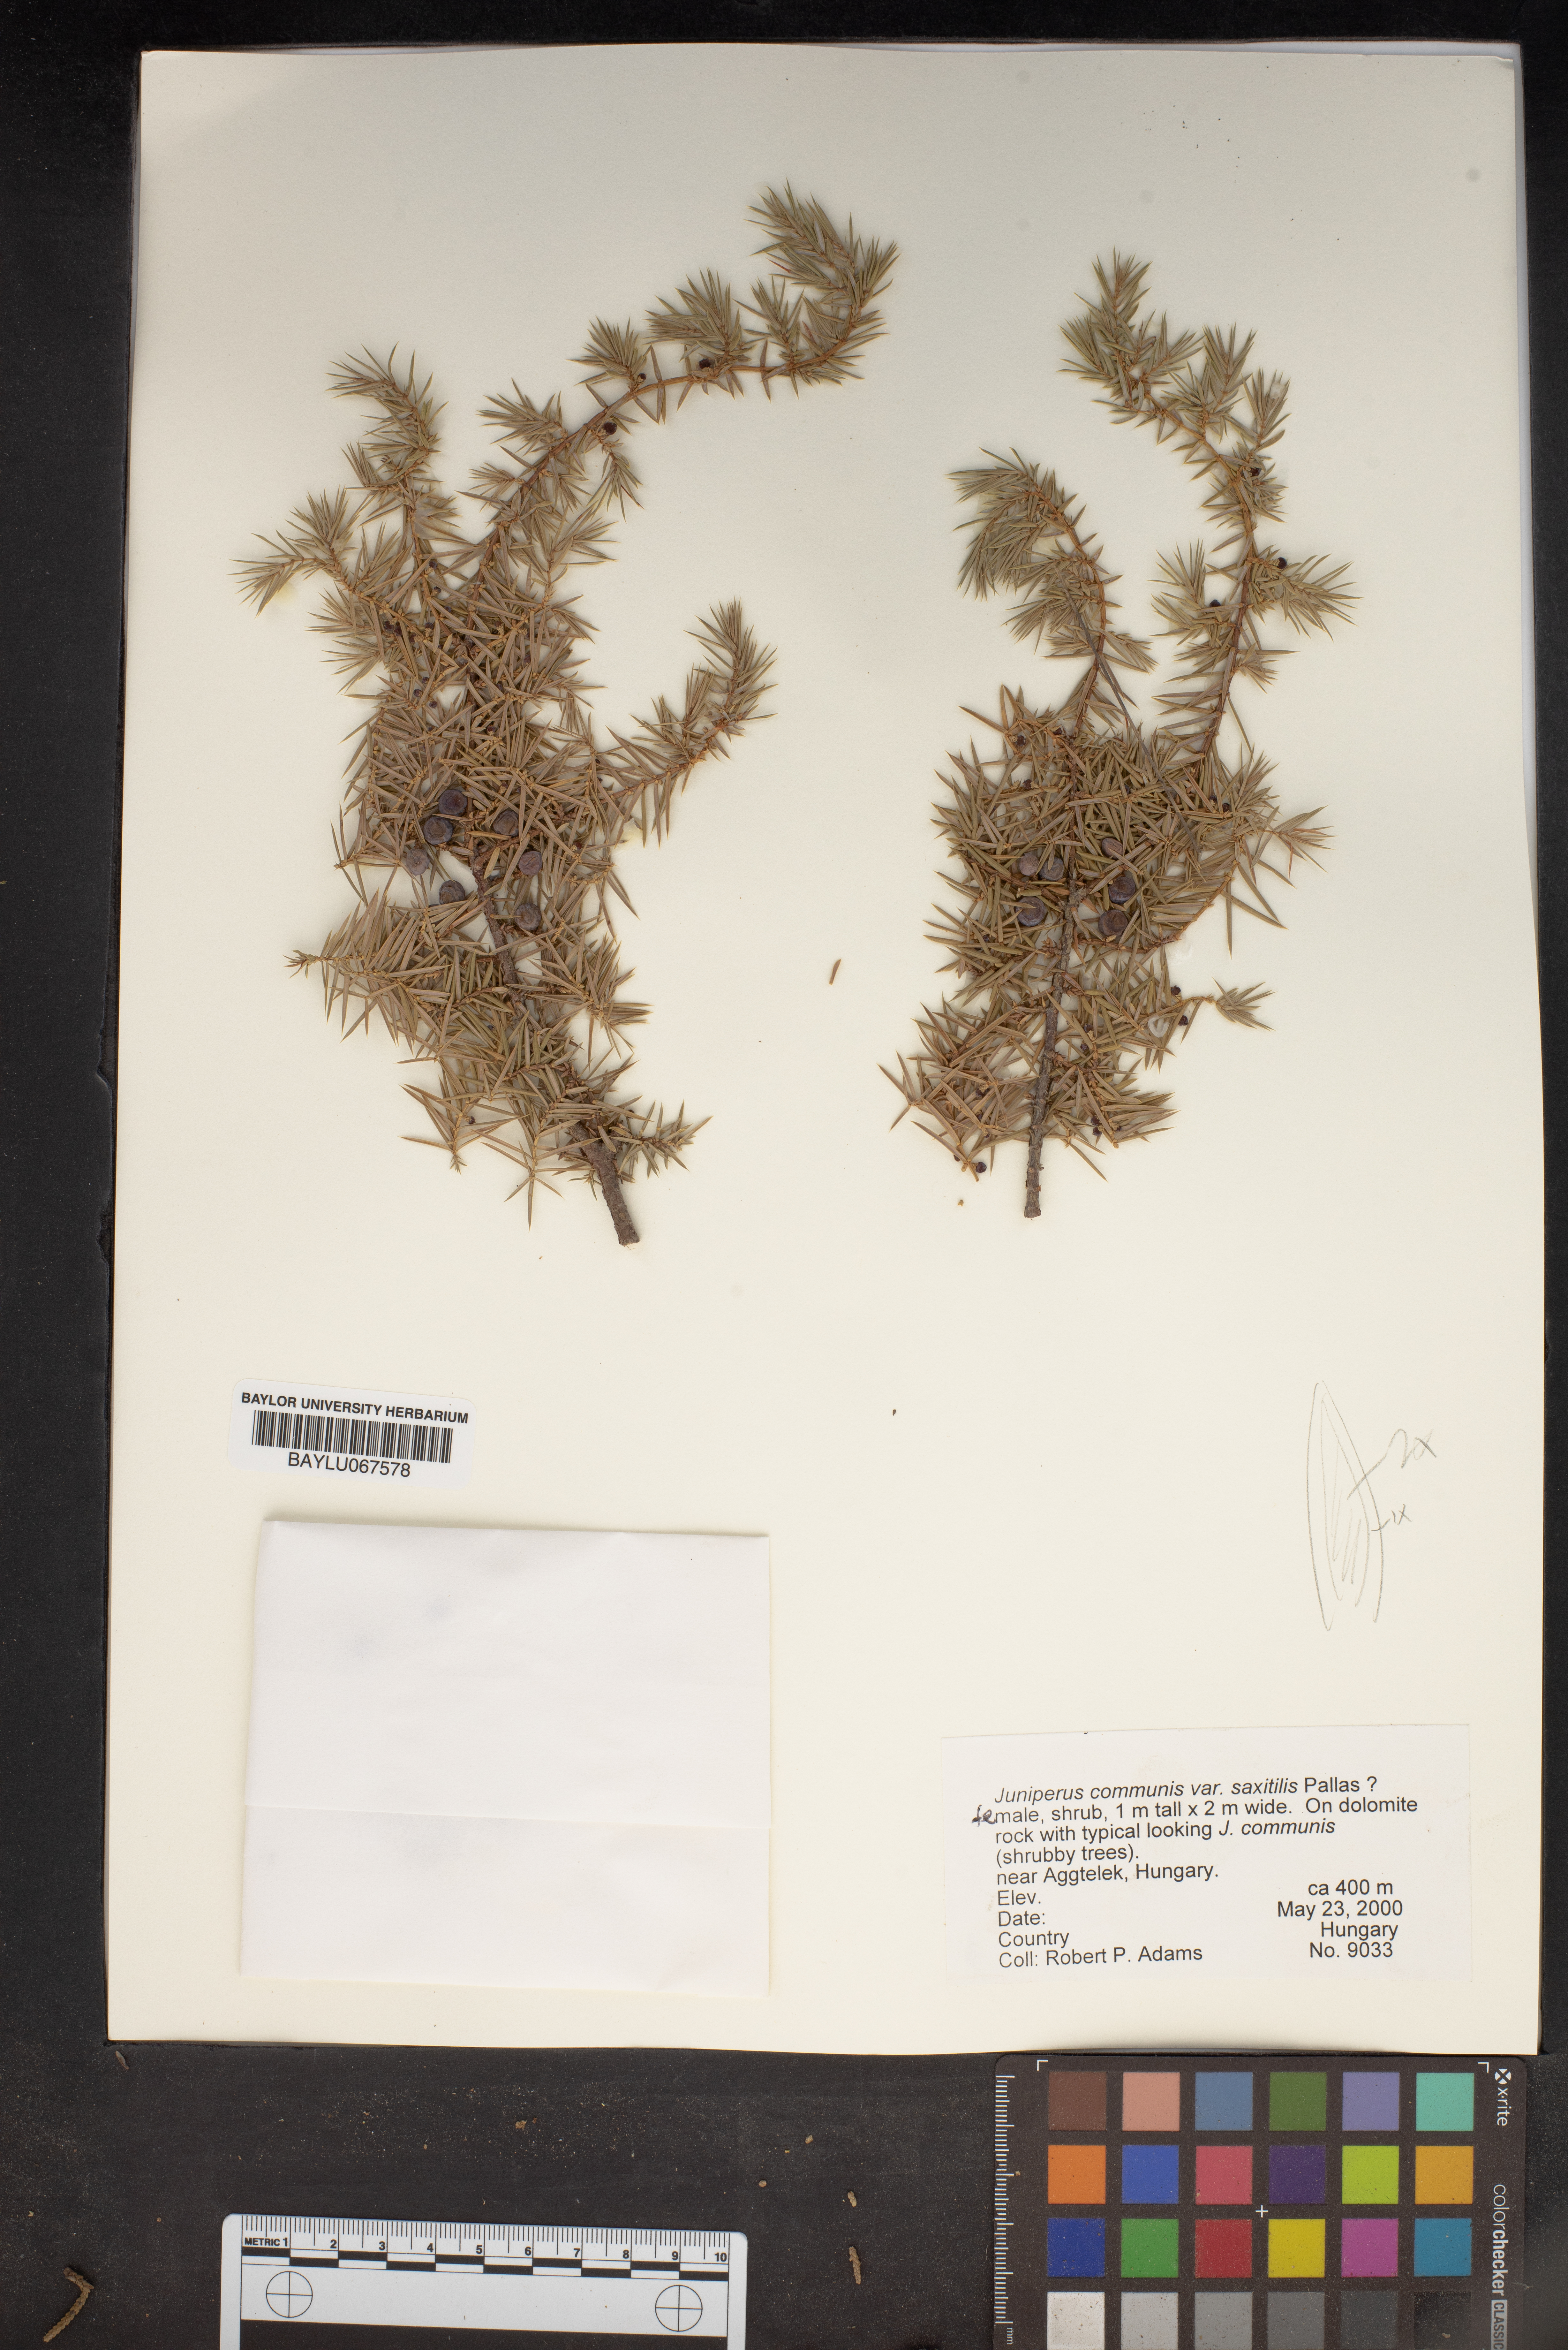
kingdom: Plantae
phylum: Tracheophyta
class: Pinopsida
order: Pinales
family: Cupressaceae
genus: Juniperus
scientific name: Juniperus communis
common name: Common juniper
